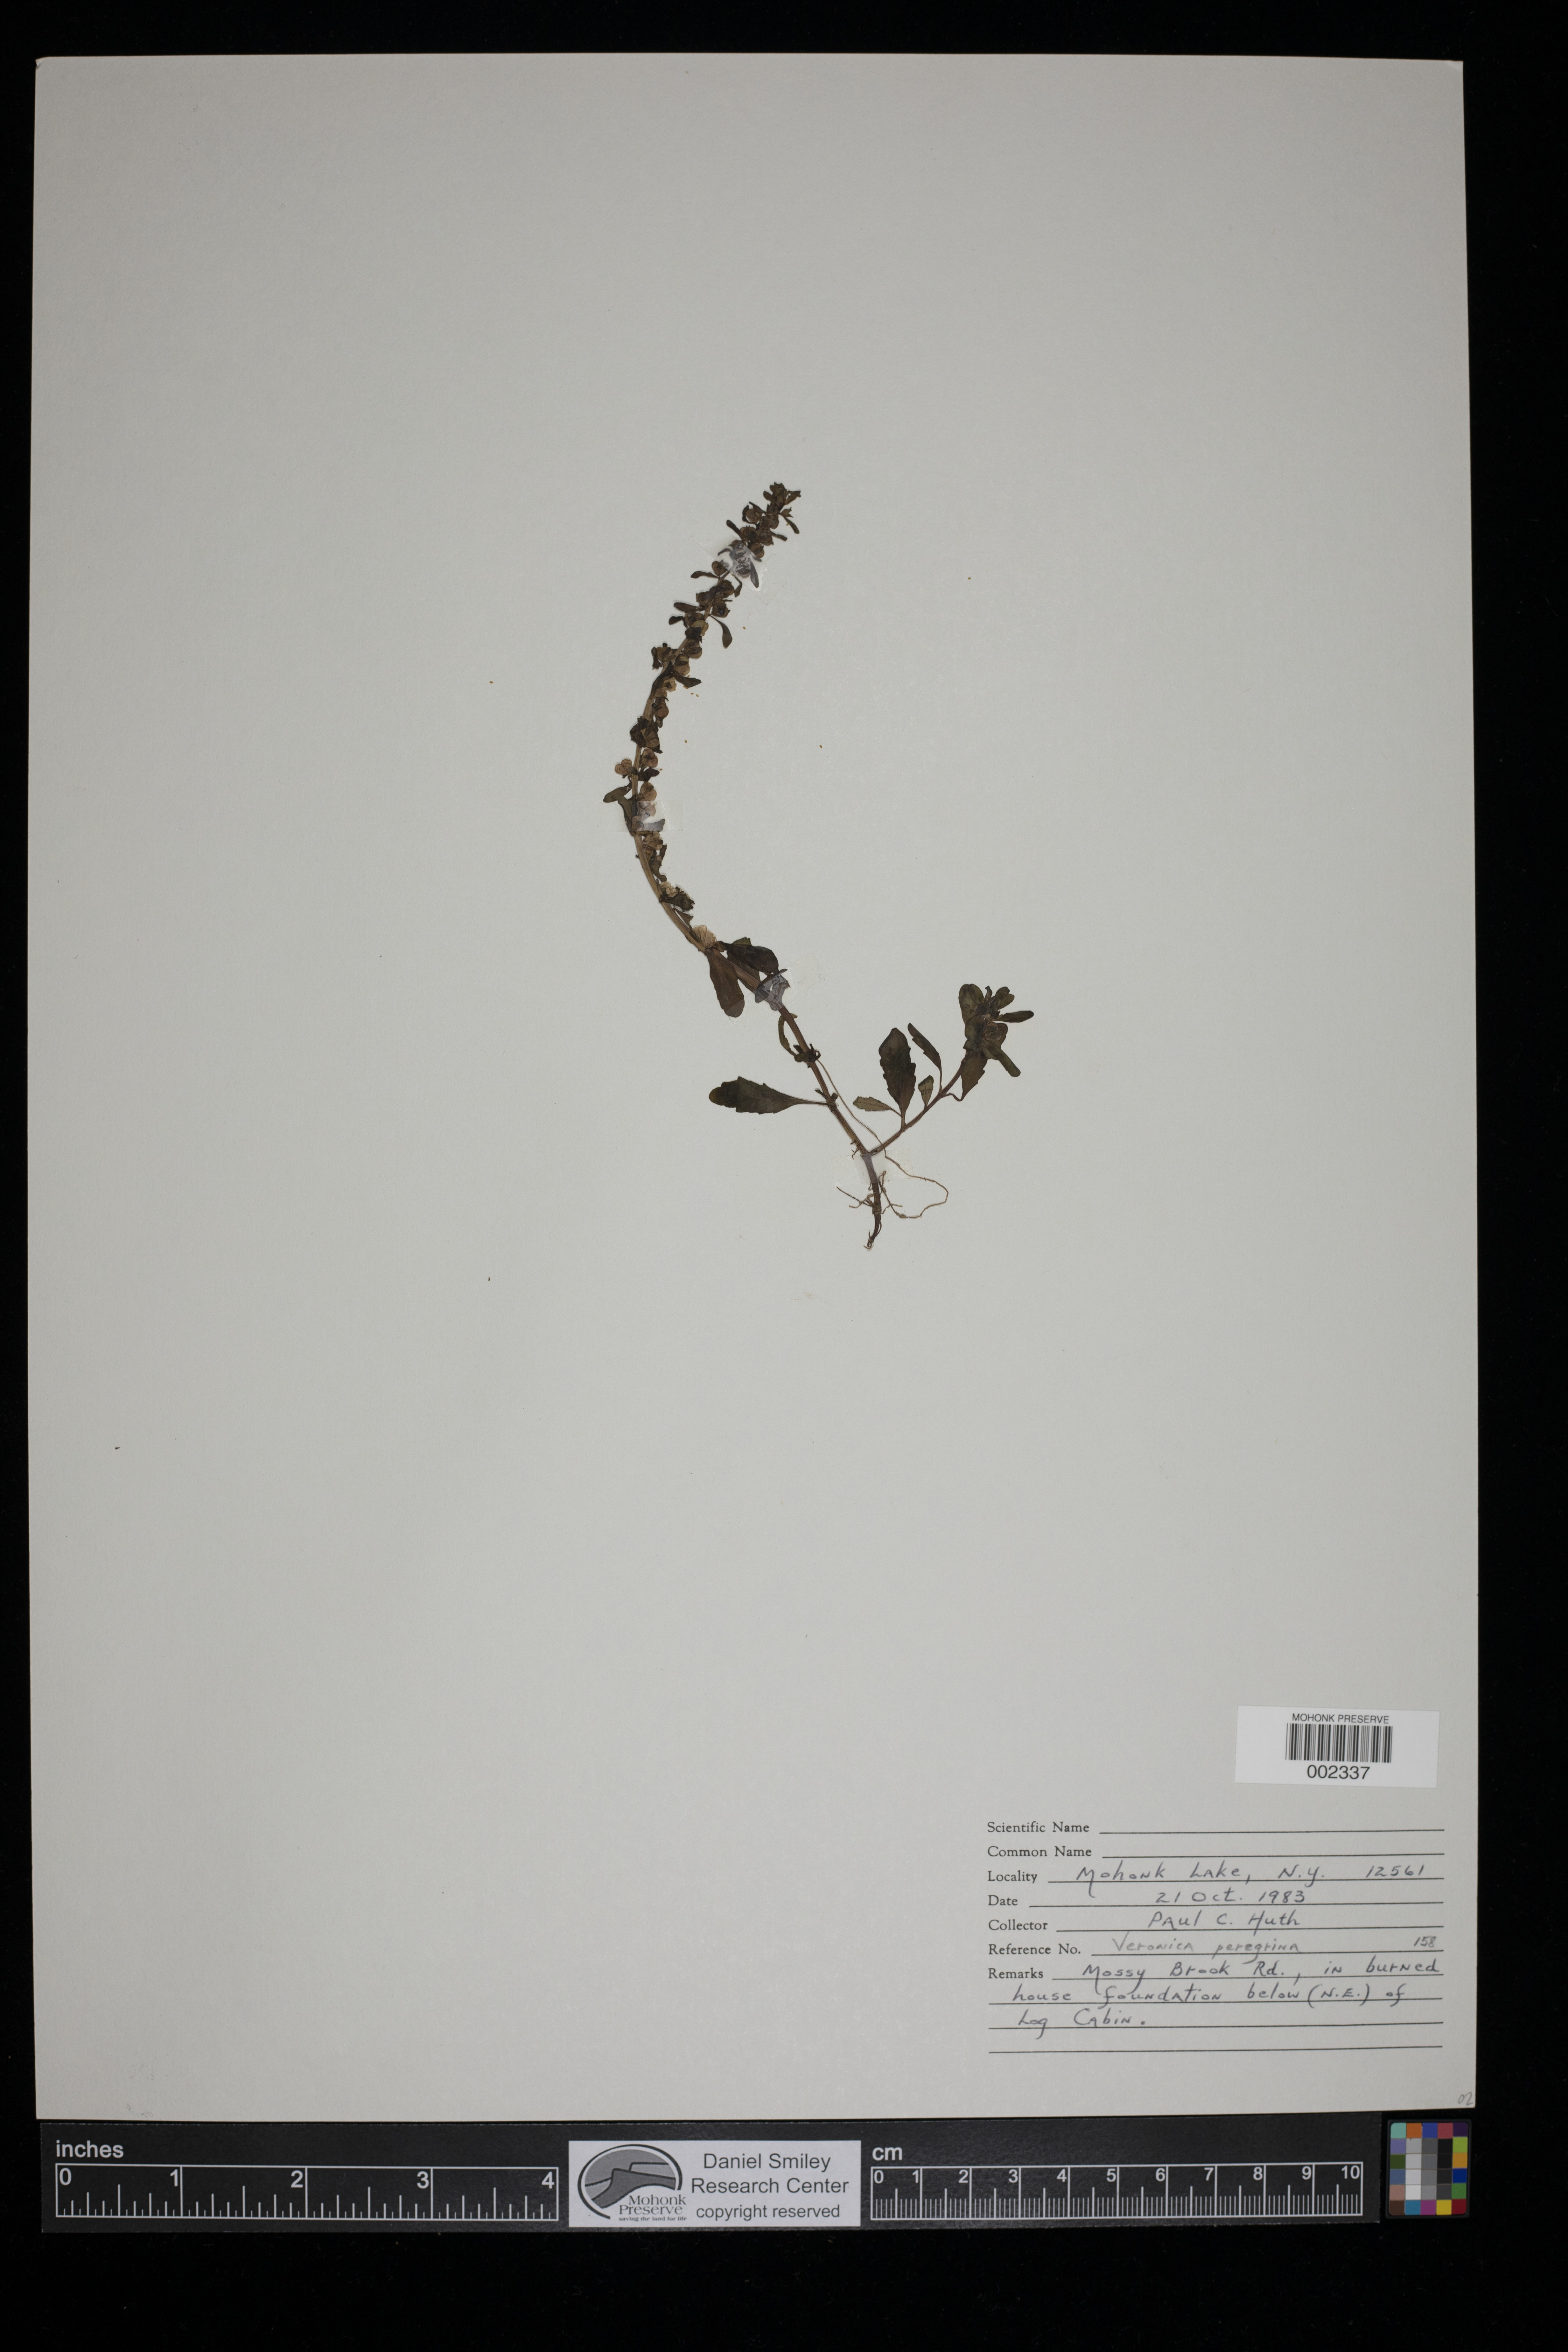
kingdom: Plantae
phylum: Tracheophyta
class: Magnoliopsida
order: Lamiales
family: Plantaginaceae
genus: Veronica
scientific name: Veronica peregrina
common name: Neckweed
